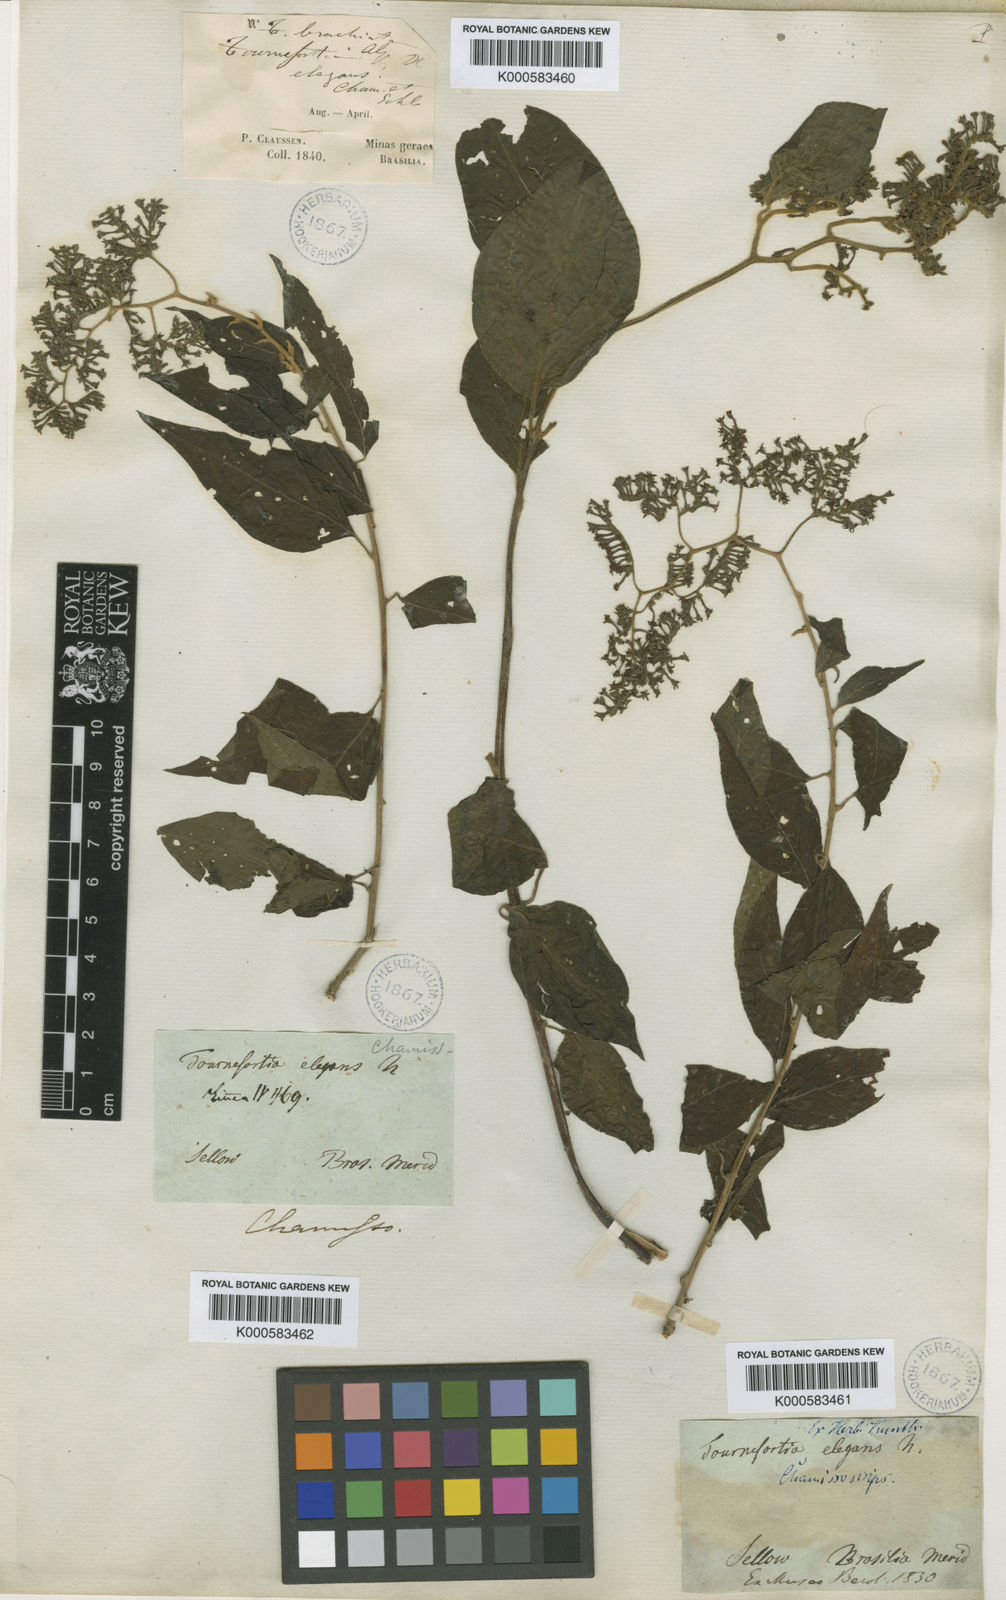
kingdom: Plantae
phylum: Tracheophyta
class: Magnoliopsida
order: Boraginales
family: Heliotropiaceae
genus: Myriopus
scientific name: Myriopus paniculatus
